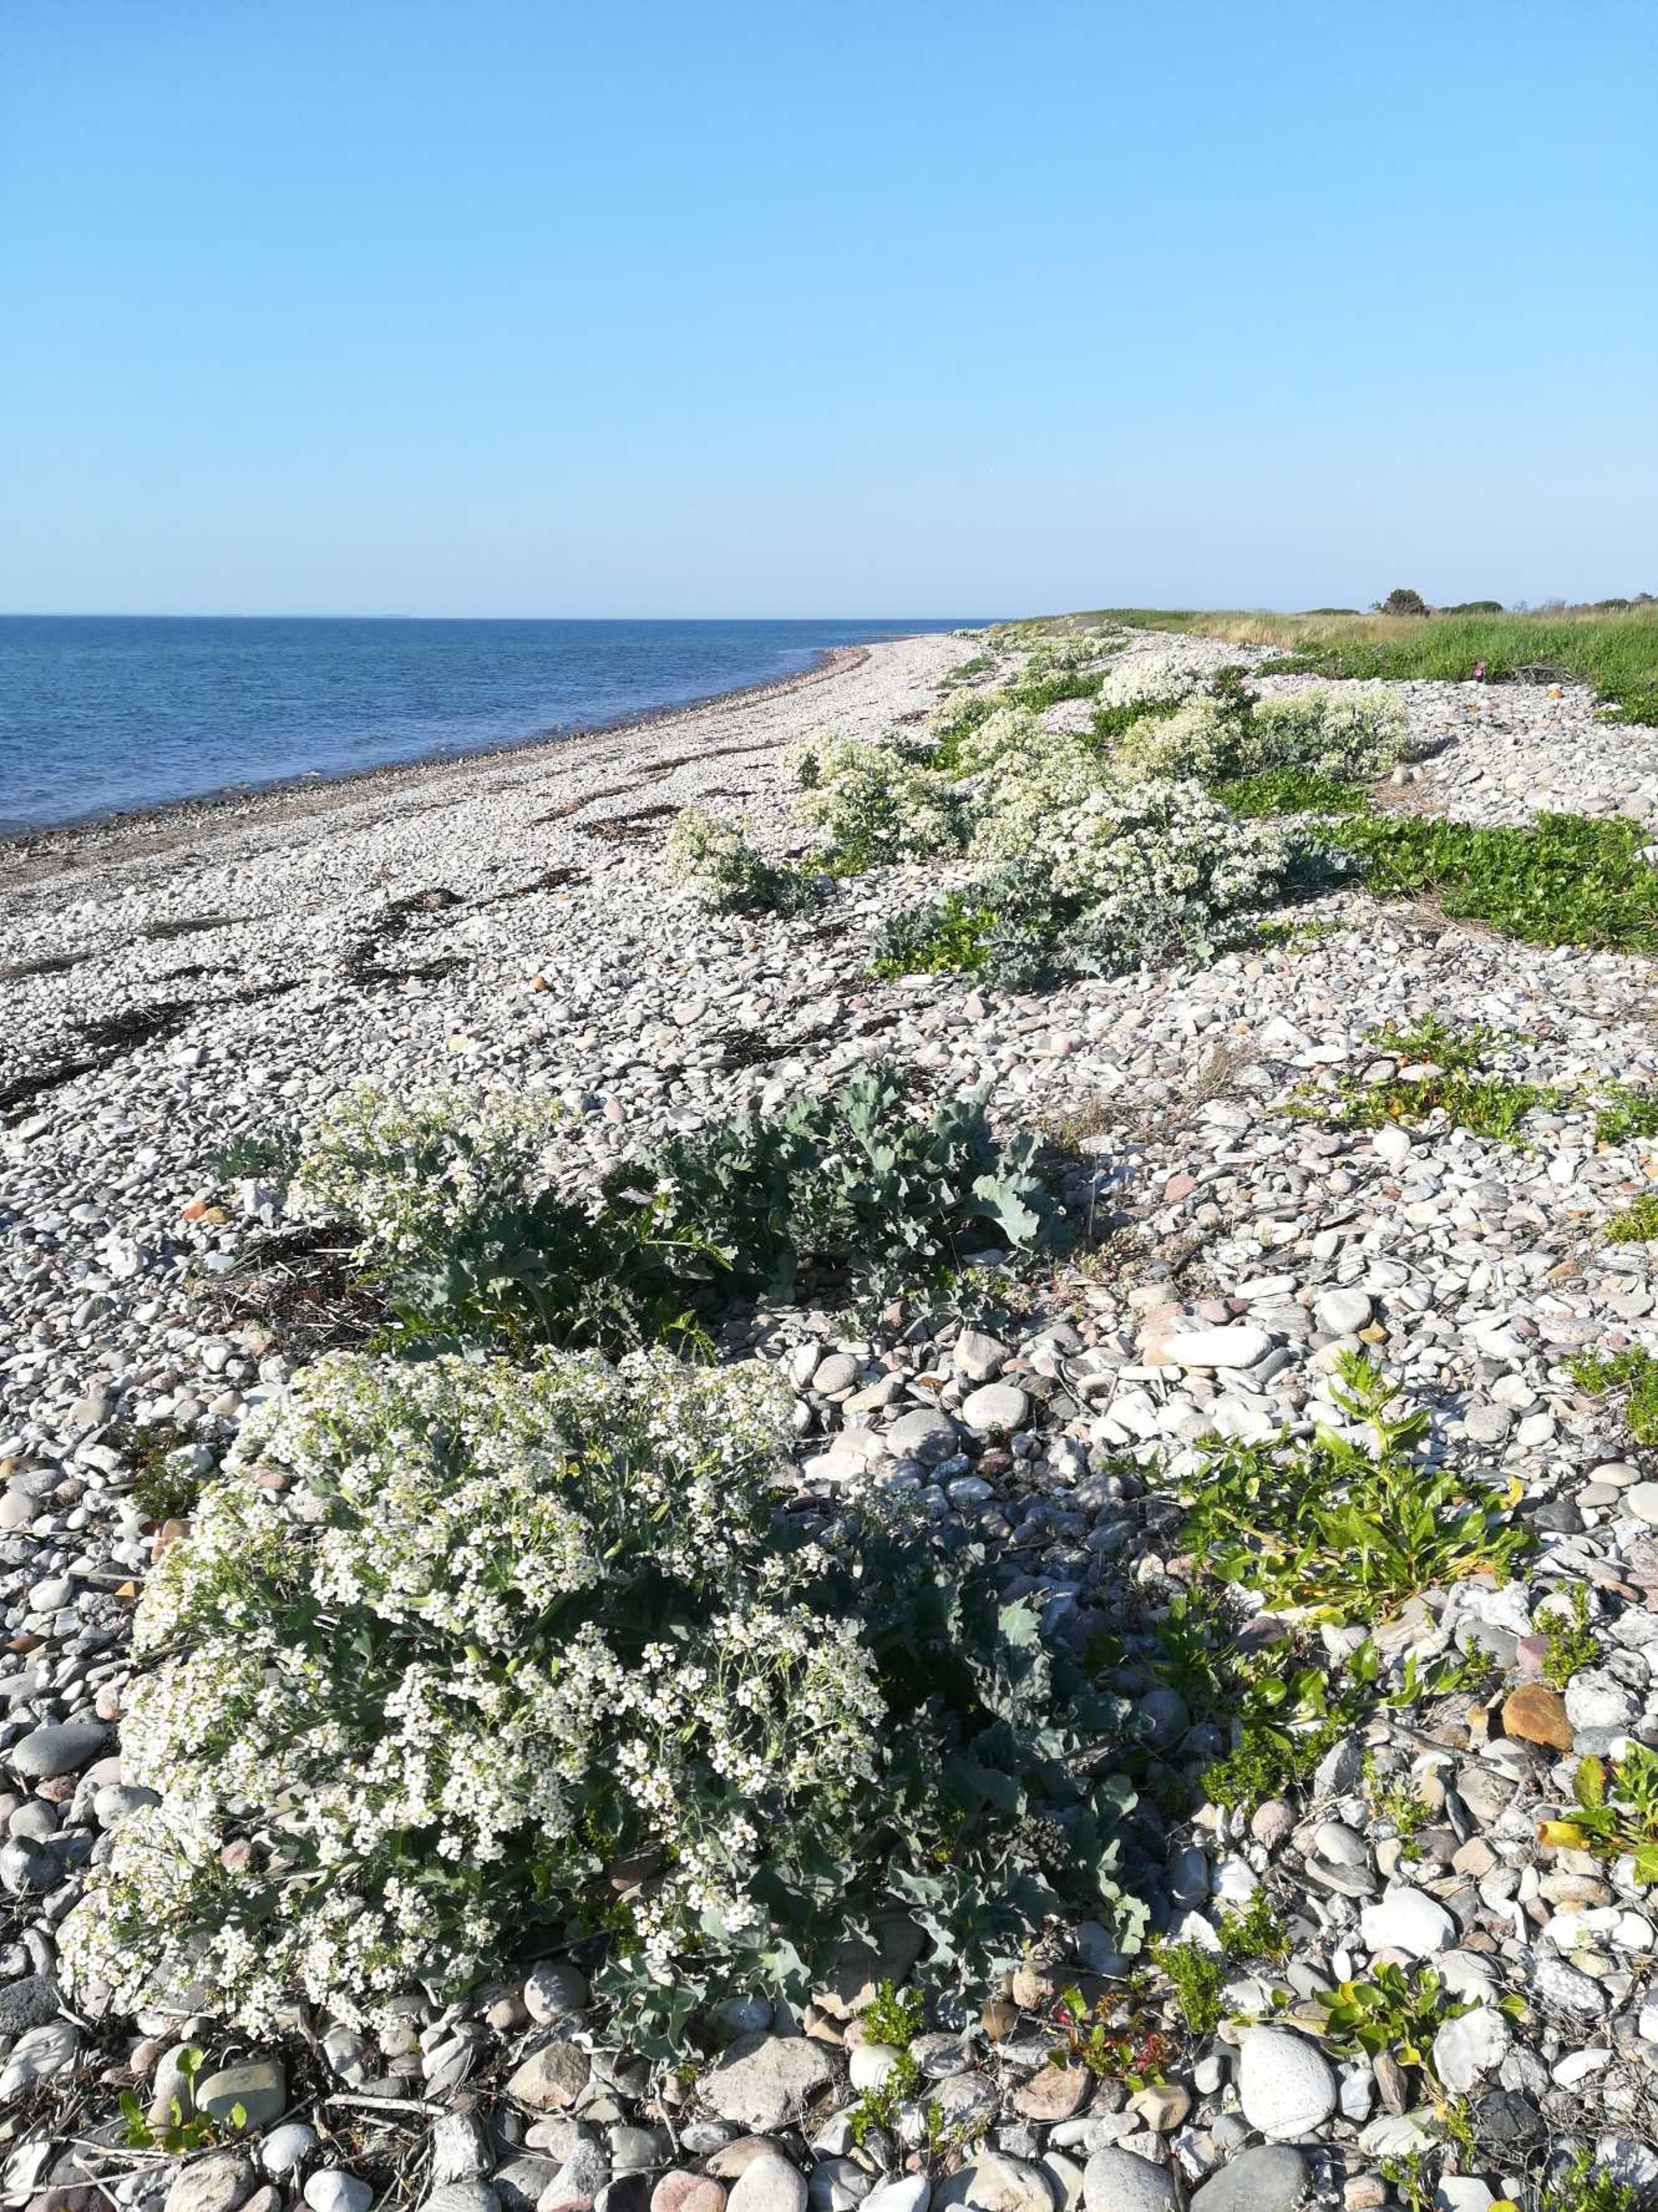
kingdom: Plantae
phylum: Tracheophyta
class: Magnoliopsida
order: Brassicales
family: Brassicaceae
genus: Crambe
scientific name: Crambe maritima
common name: Strandkål
